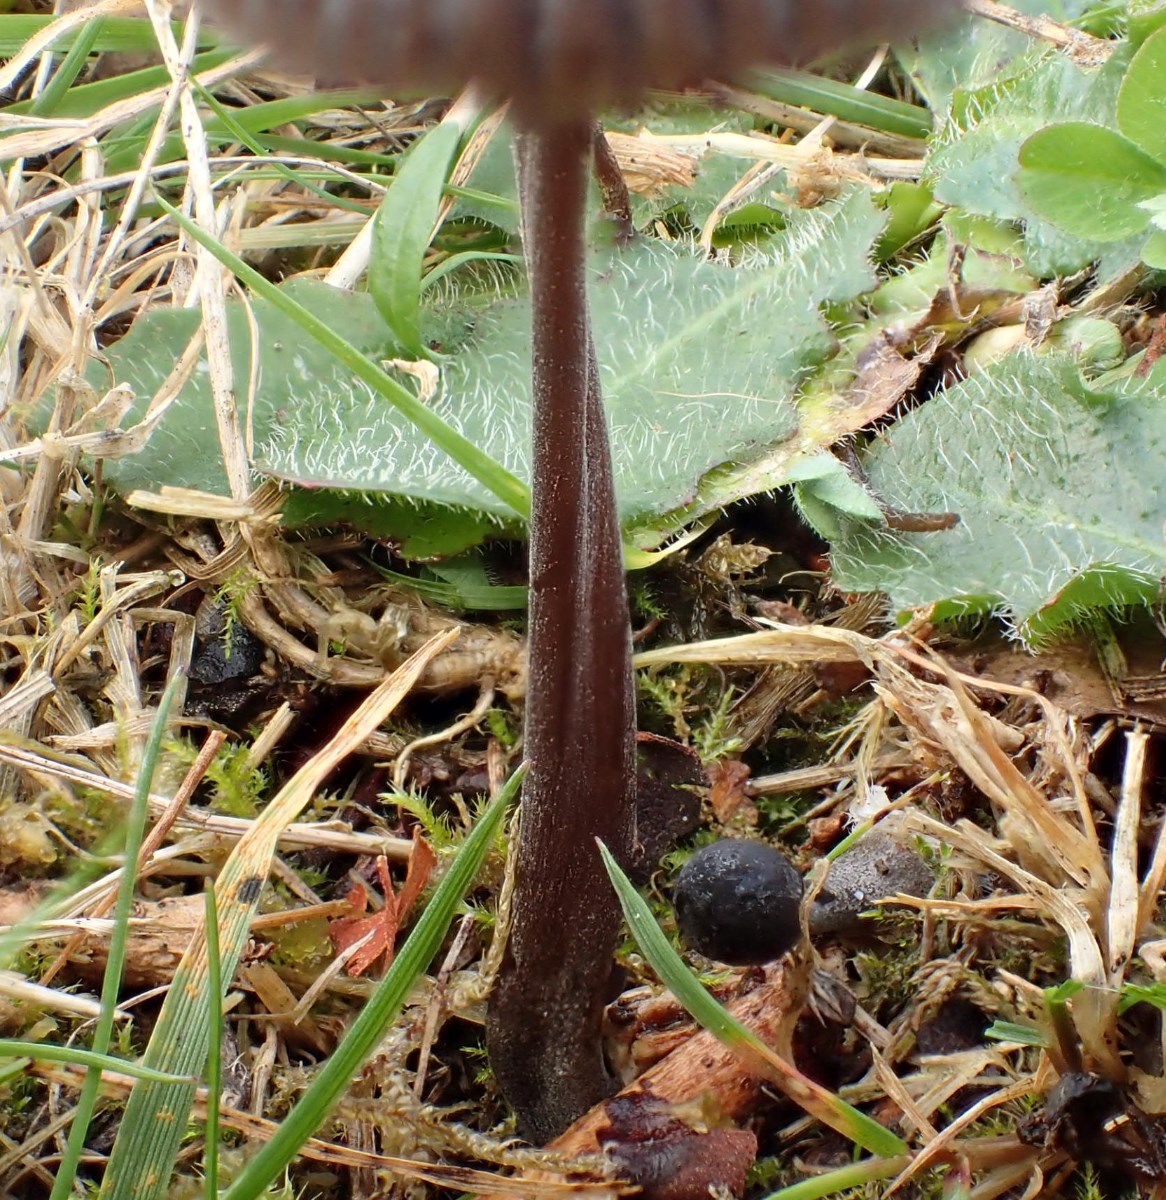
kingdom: Fungi
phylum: Basidiomycota
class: Agaricomycetes
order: Agaricales
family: Mycenaceae
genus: Mycena
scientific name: Mycena galopus
